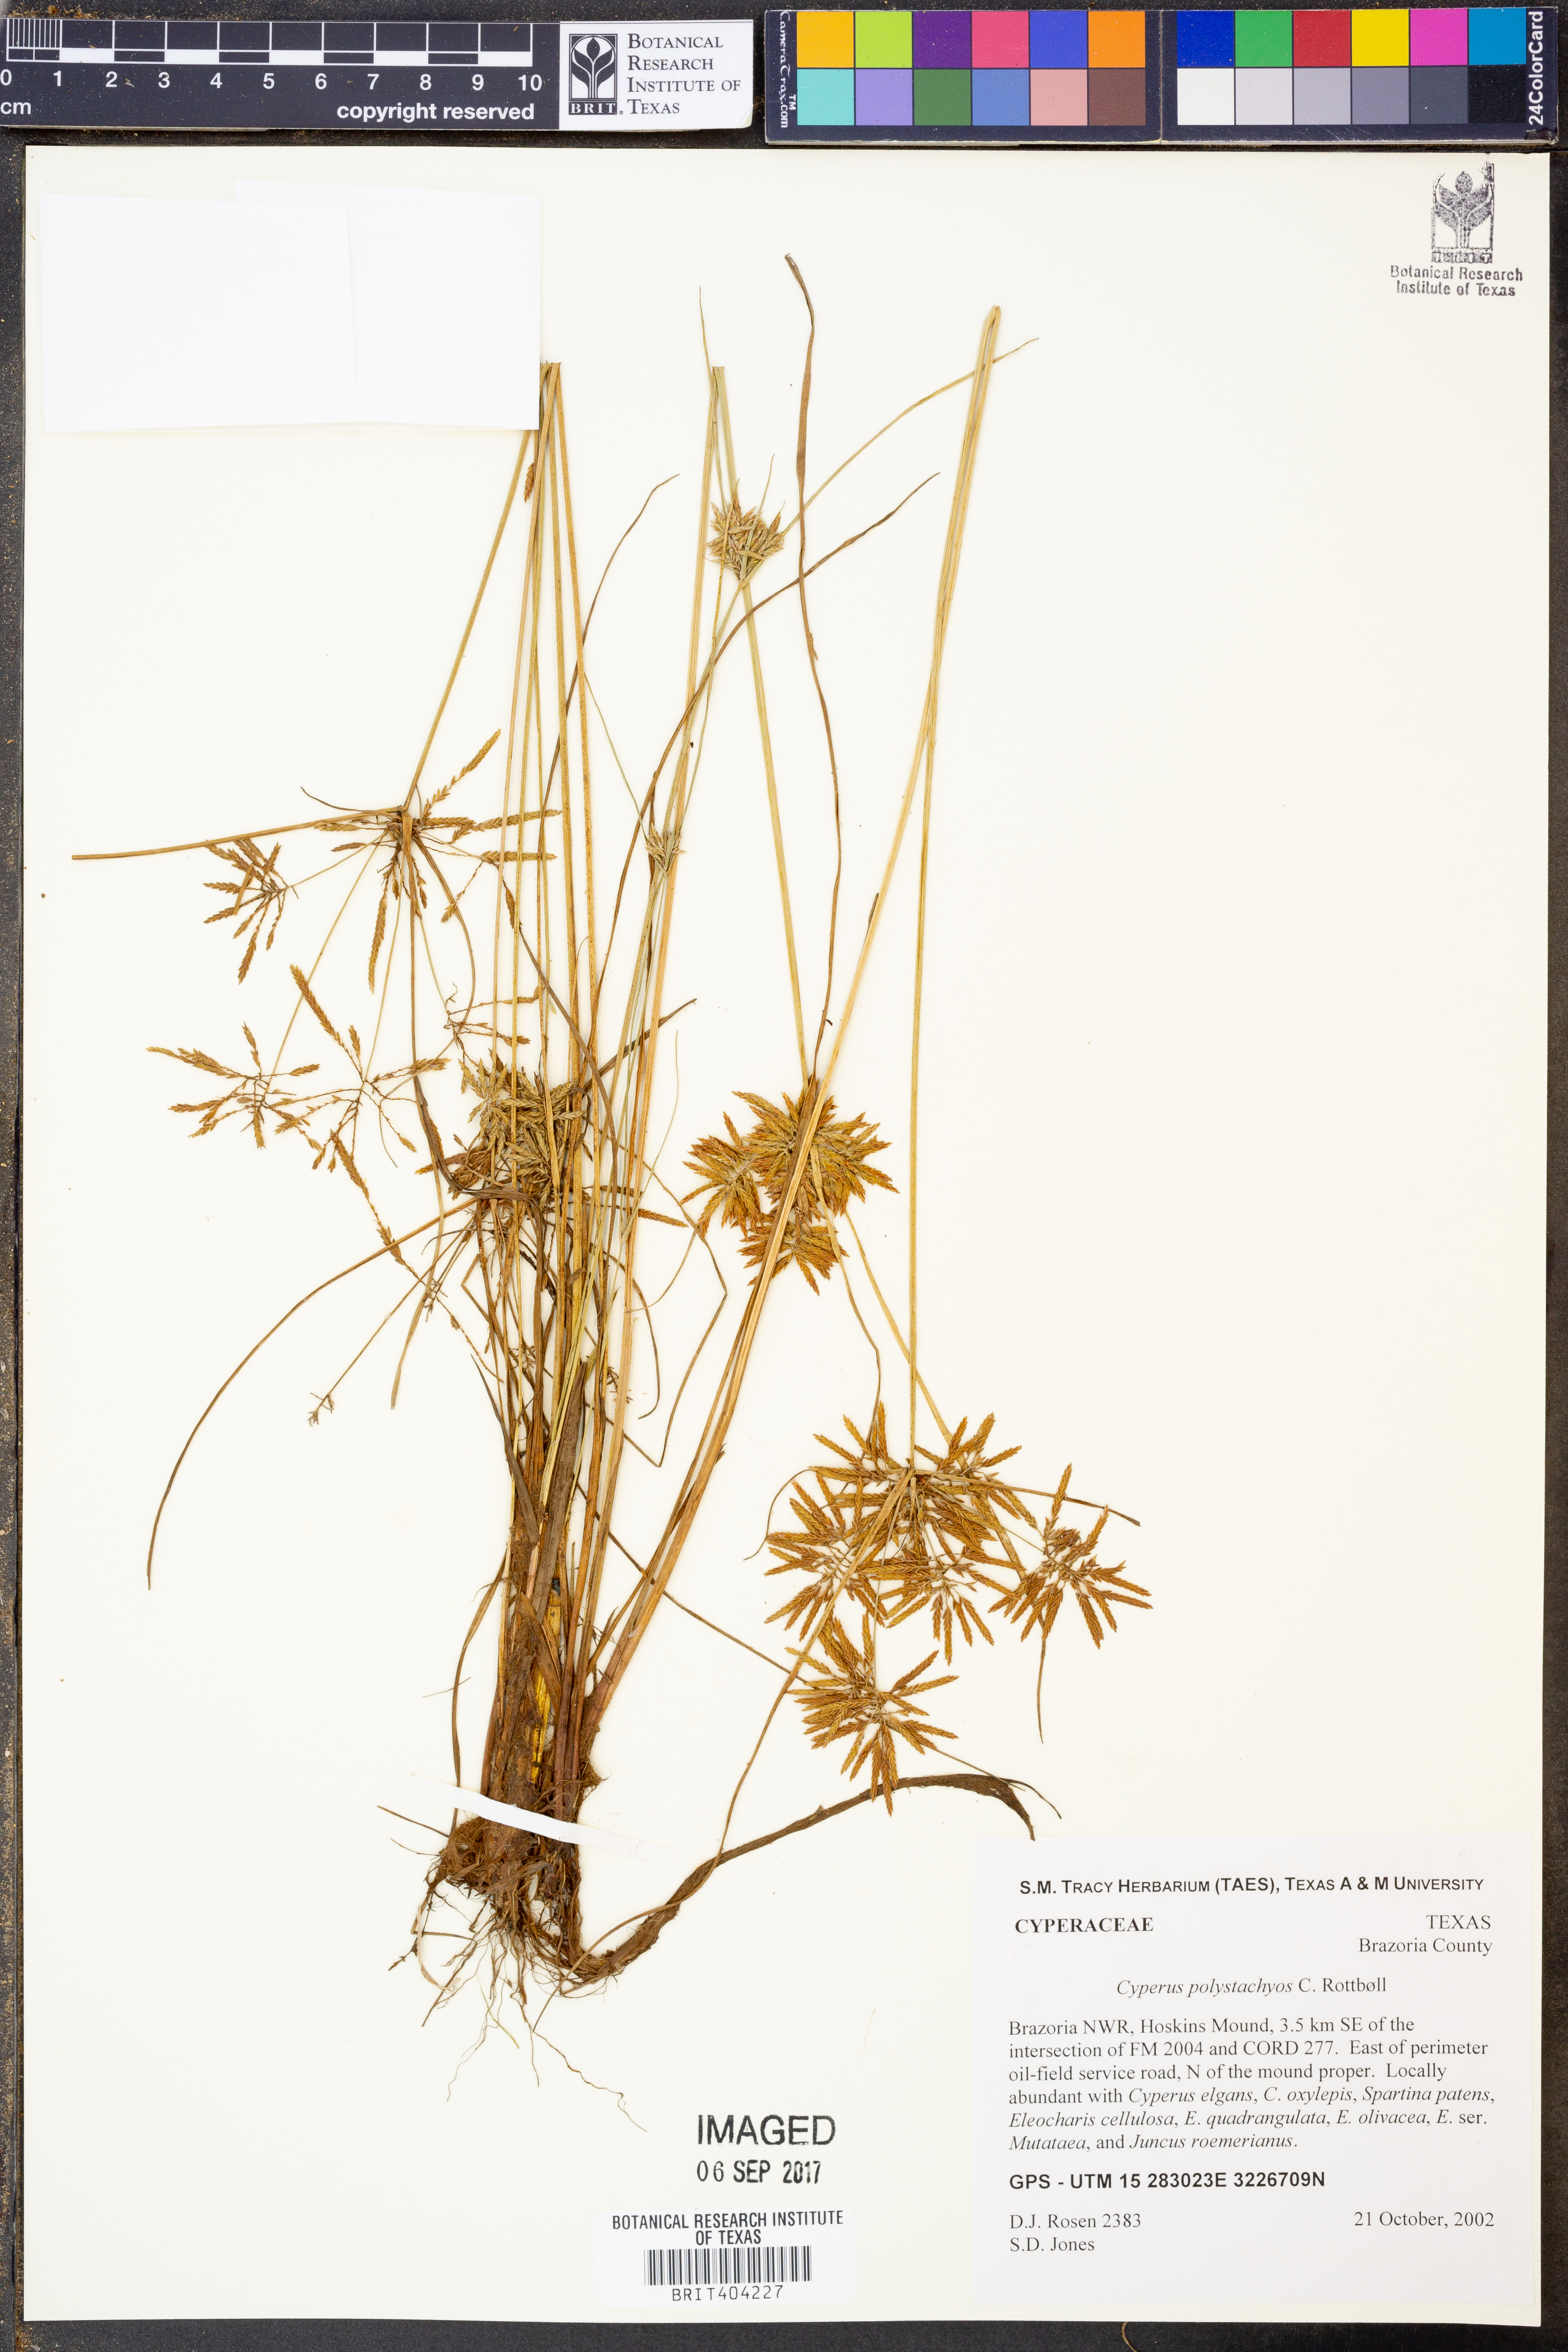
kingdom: Plantae
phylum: Tracheophyta
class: Liliopsida
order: Poales
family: Cyperaceae
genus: Cyperus
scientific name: Cyperus polystachyos
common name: Bunchy flat sedge
